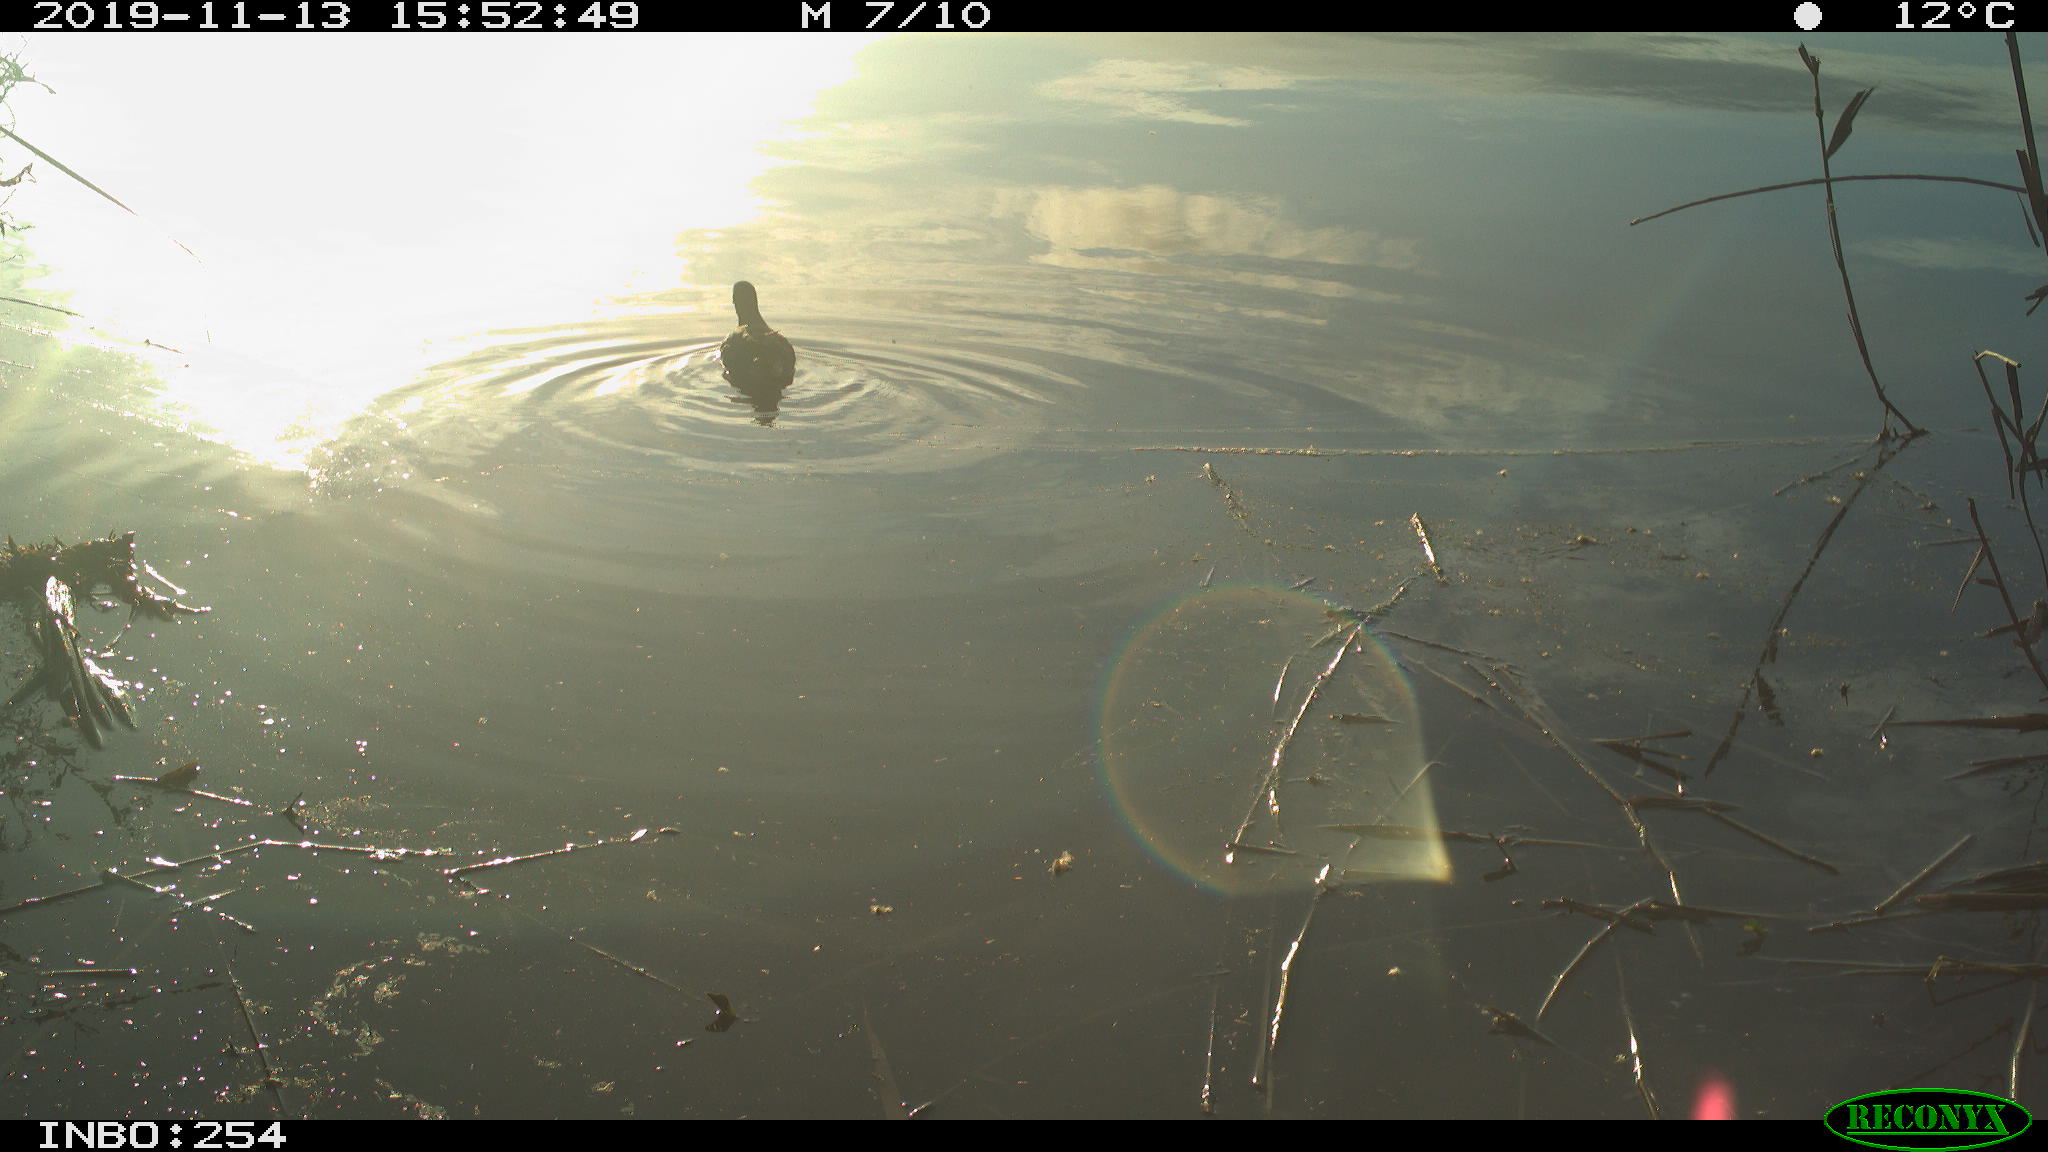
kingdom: Animalia
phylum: Chordata
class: Aves
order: Gruiformes
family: Rallidae
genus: Gallinula
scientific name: Gallinula chloropus
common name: Common moorhen
